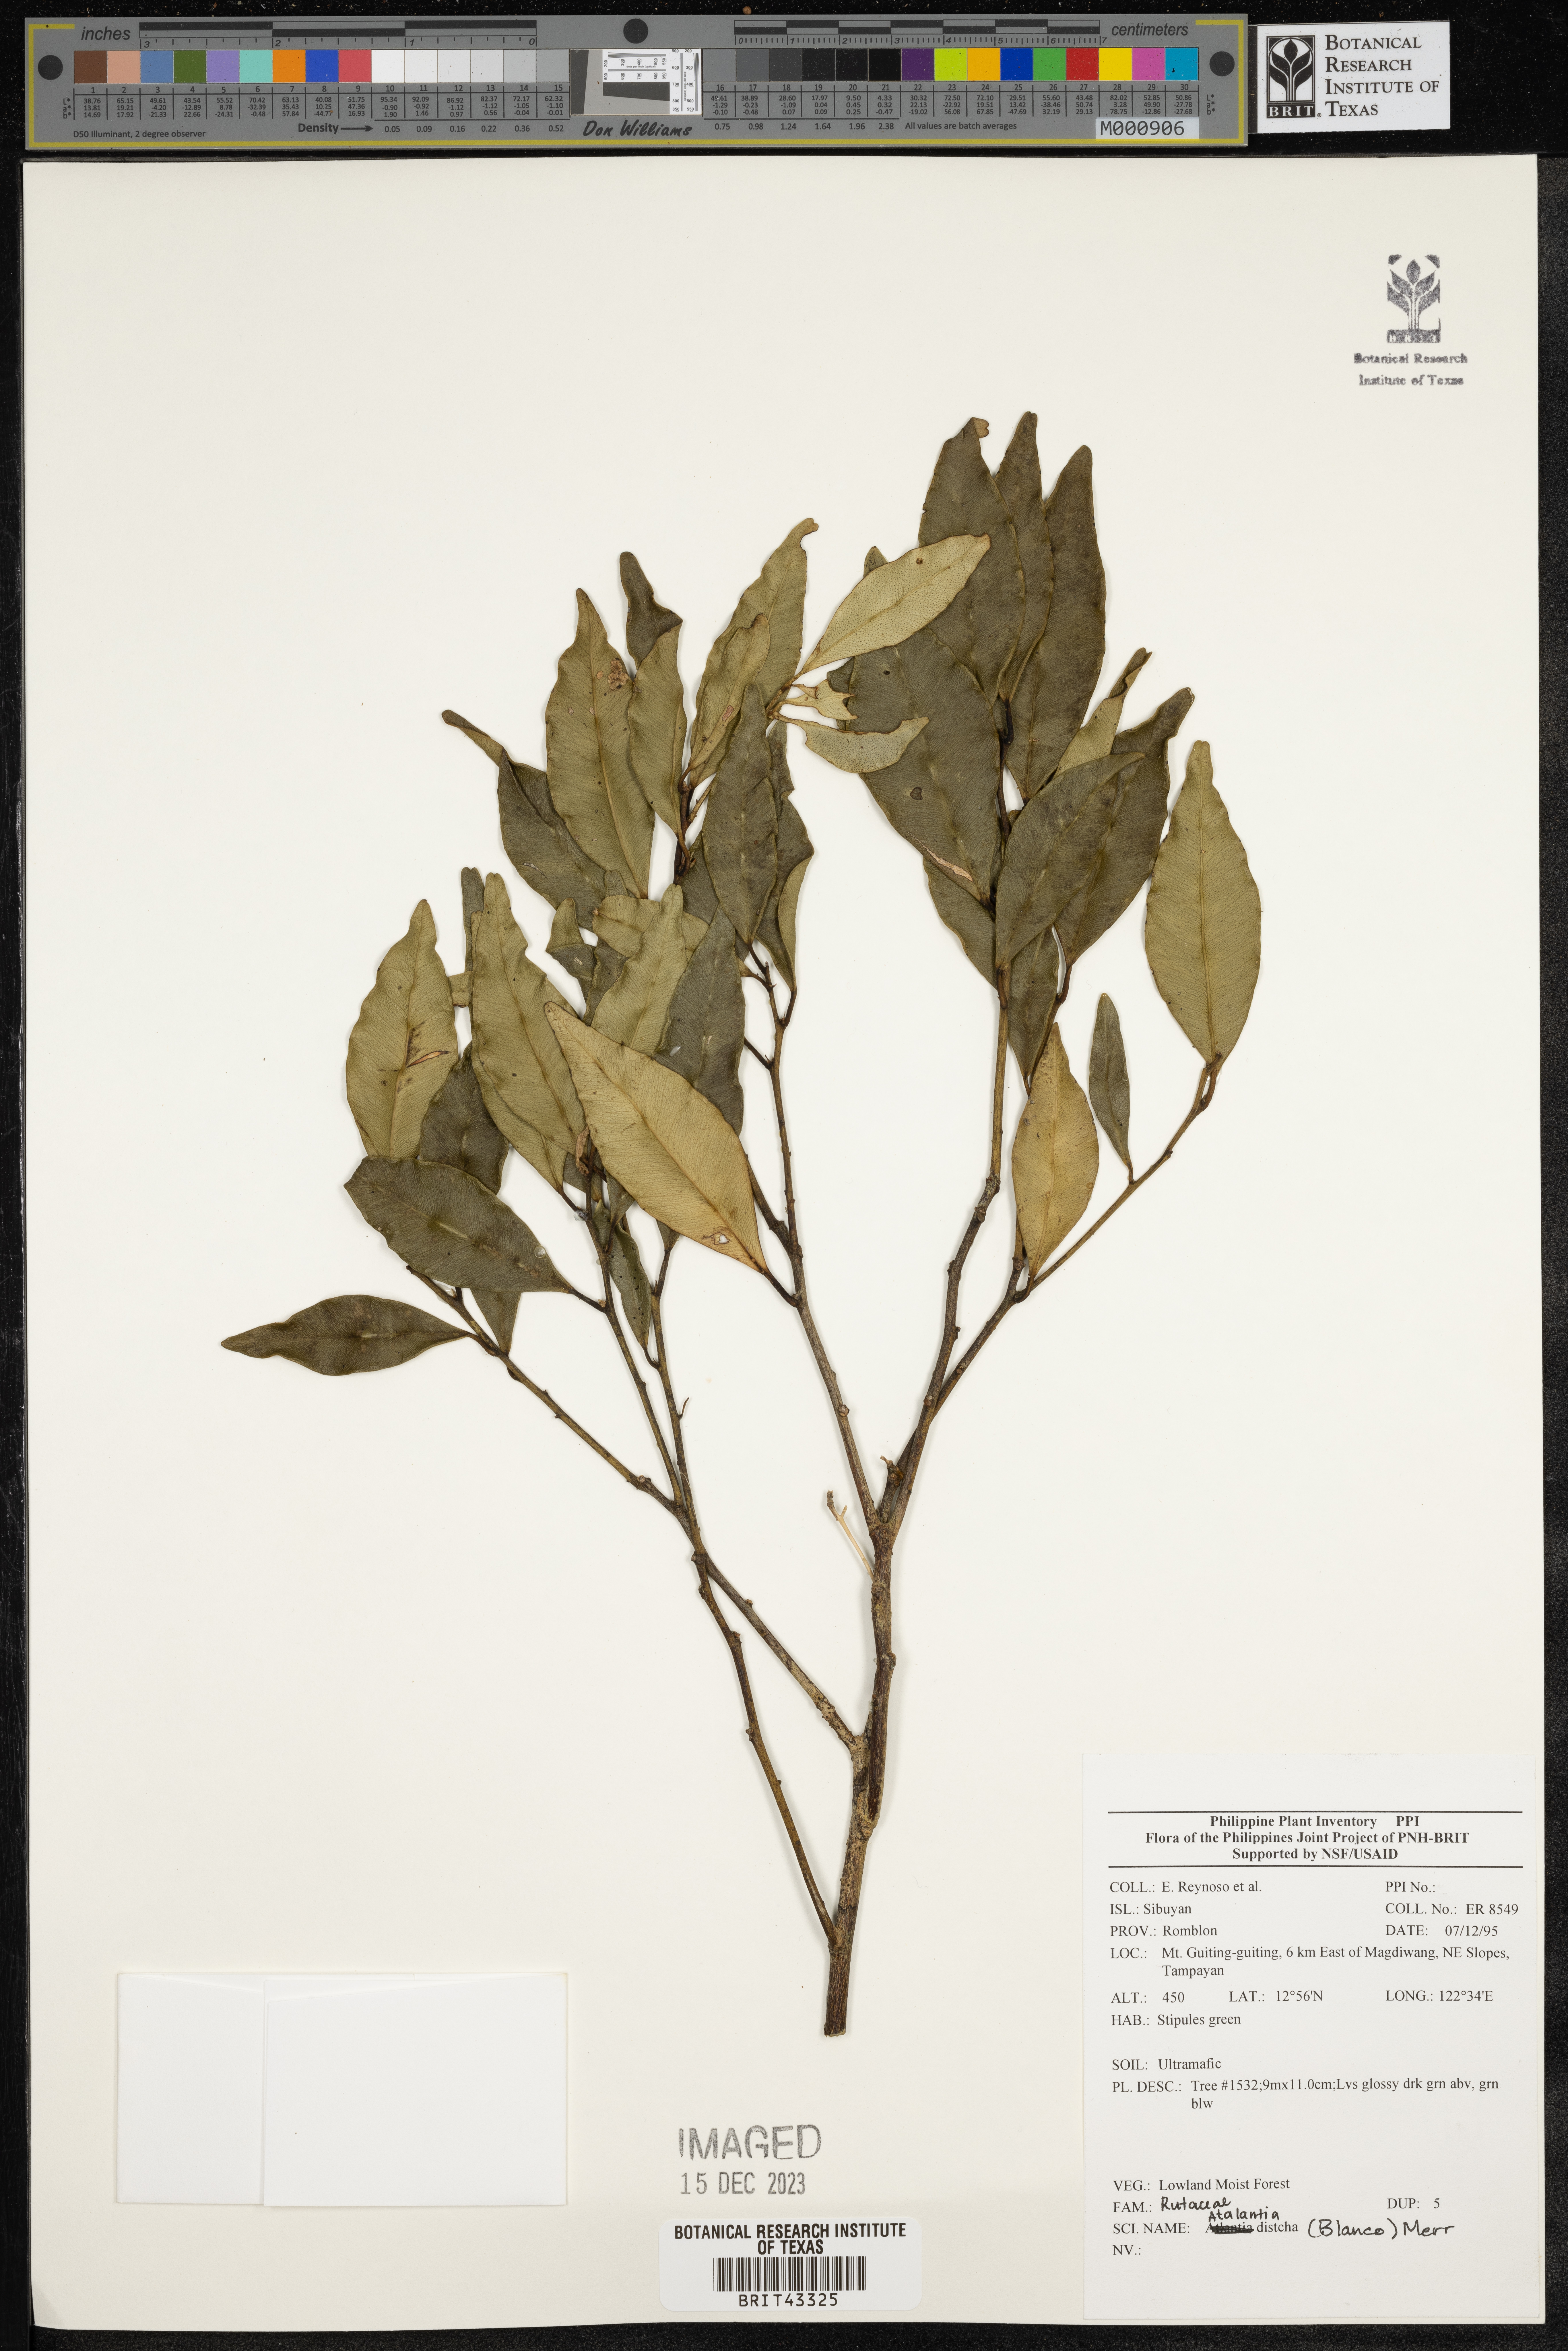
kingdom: Plantae
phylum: Tracheophyta
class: Magnoliopsida
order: Sapindales
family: Rutaceae
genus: Atalantia
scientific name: Atalantia
